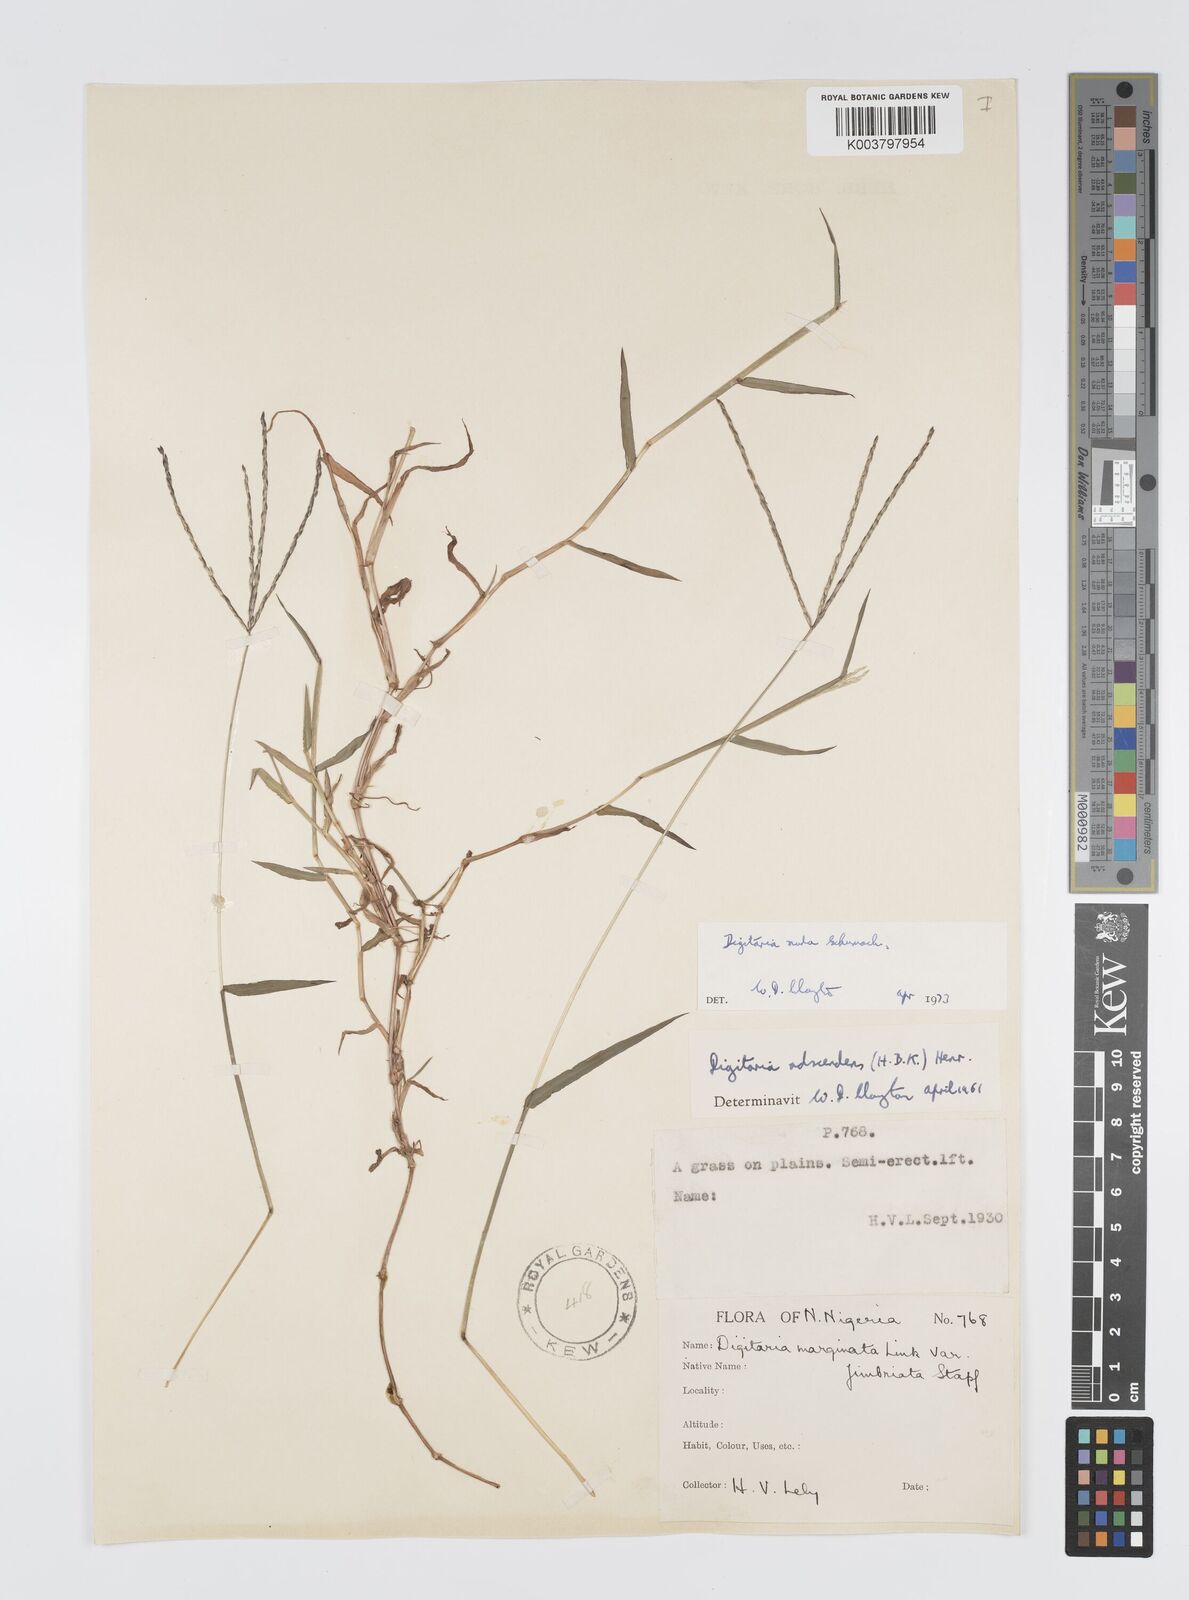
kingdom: Plantae
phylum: Tracheophyta
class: Liliopsida
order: Poales
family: Poaceae
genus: Digitaria
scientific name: Digitaria nuda
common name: Naked crabgrass
